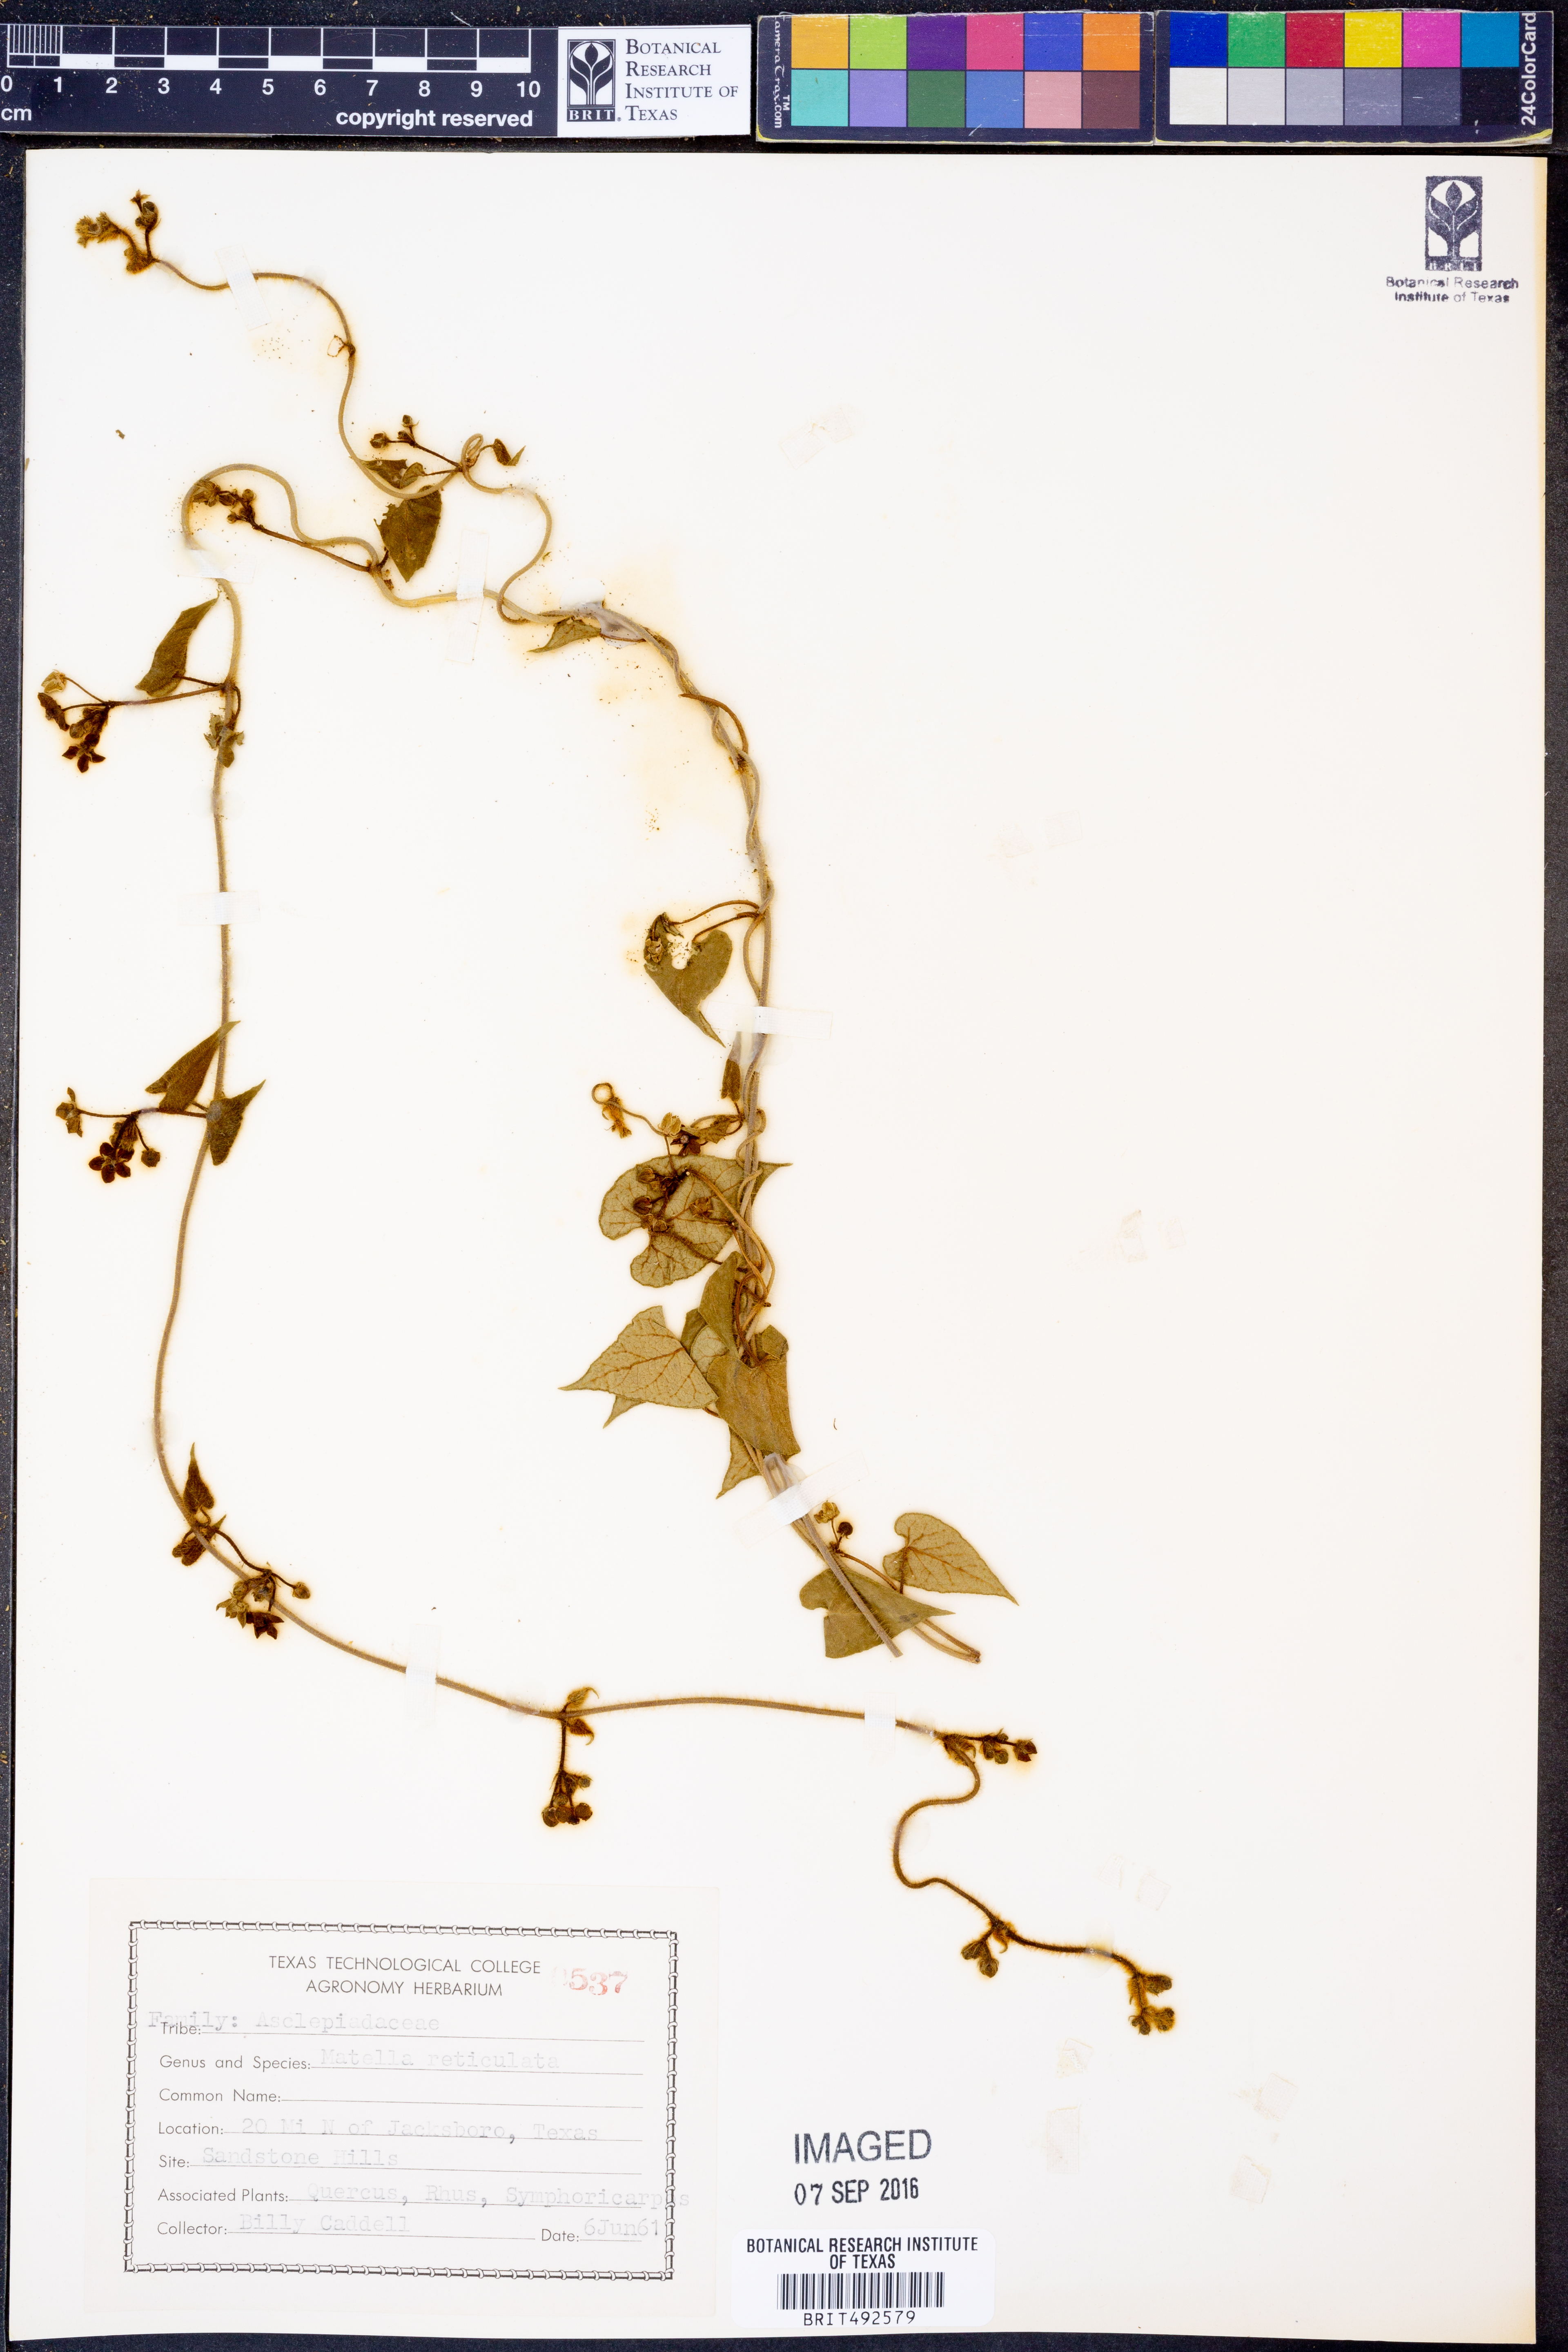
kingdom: Plantae
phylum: Tracheophyta
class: Magnoliopsida
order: Gentianales
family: Apocynaceae
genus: Dictyanthus
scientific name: Dictyanthus reticulatus
